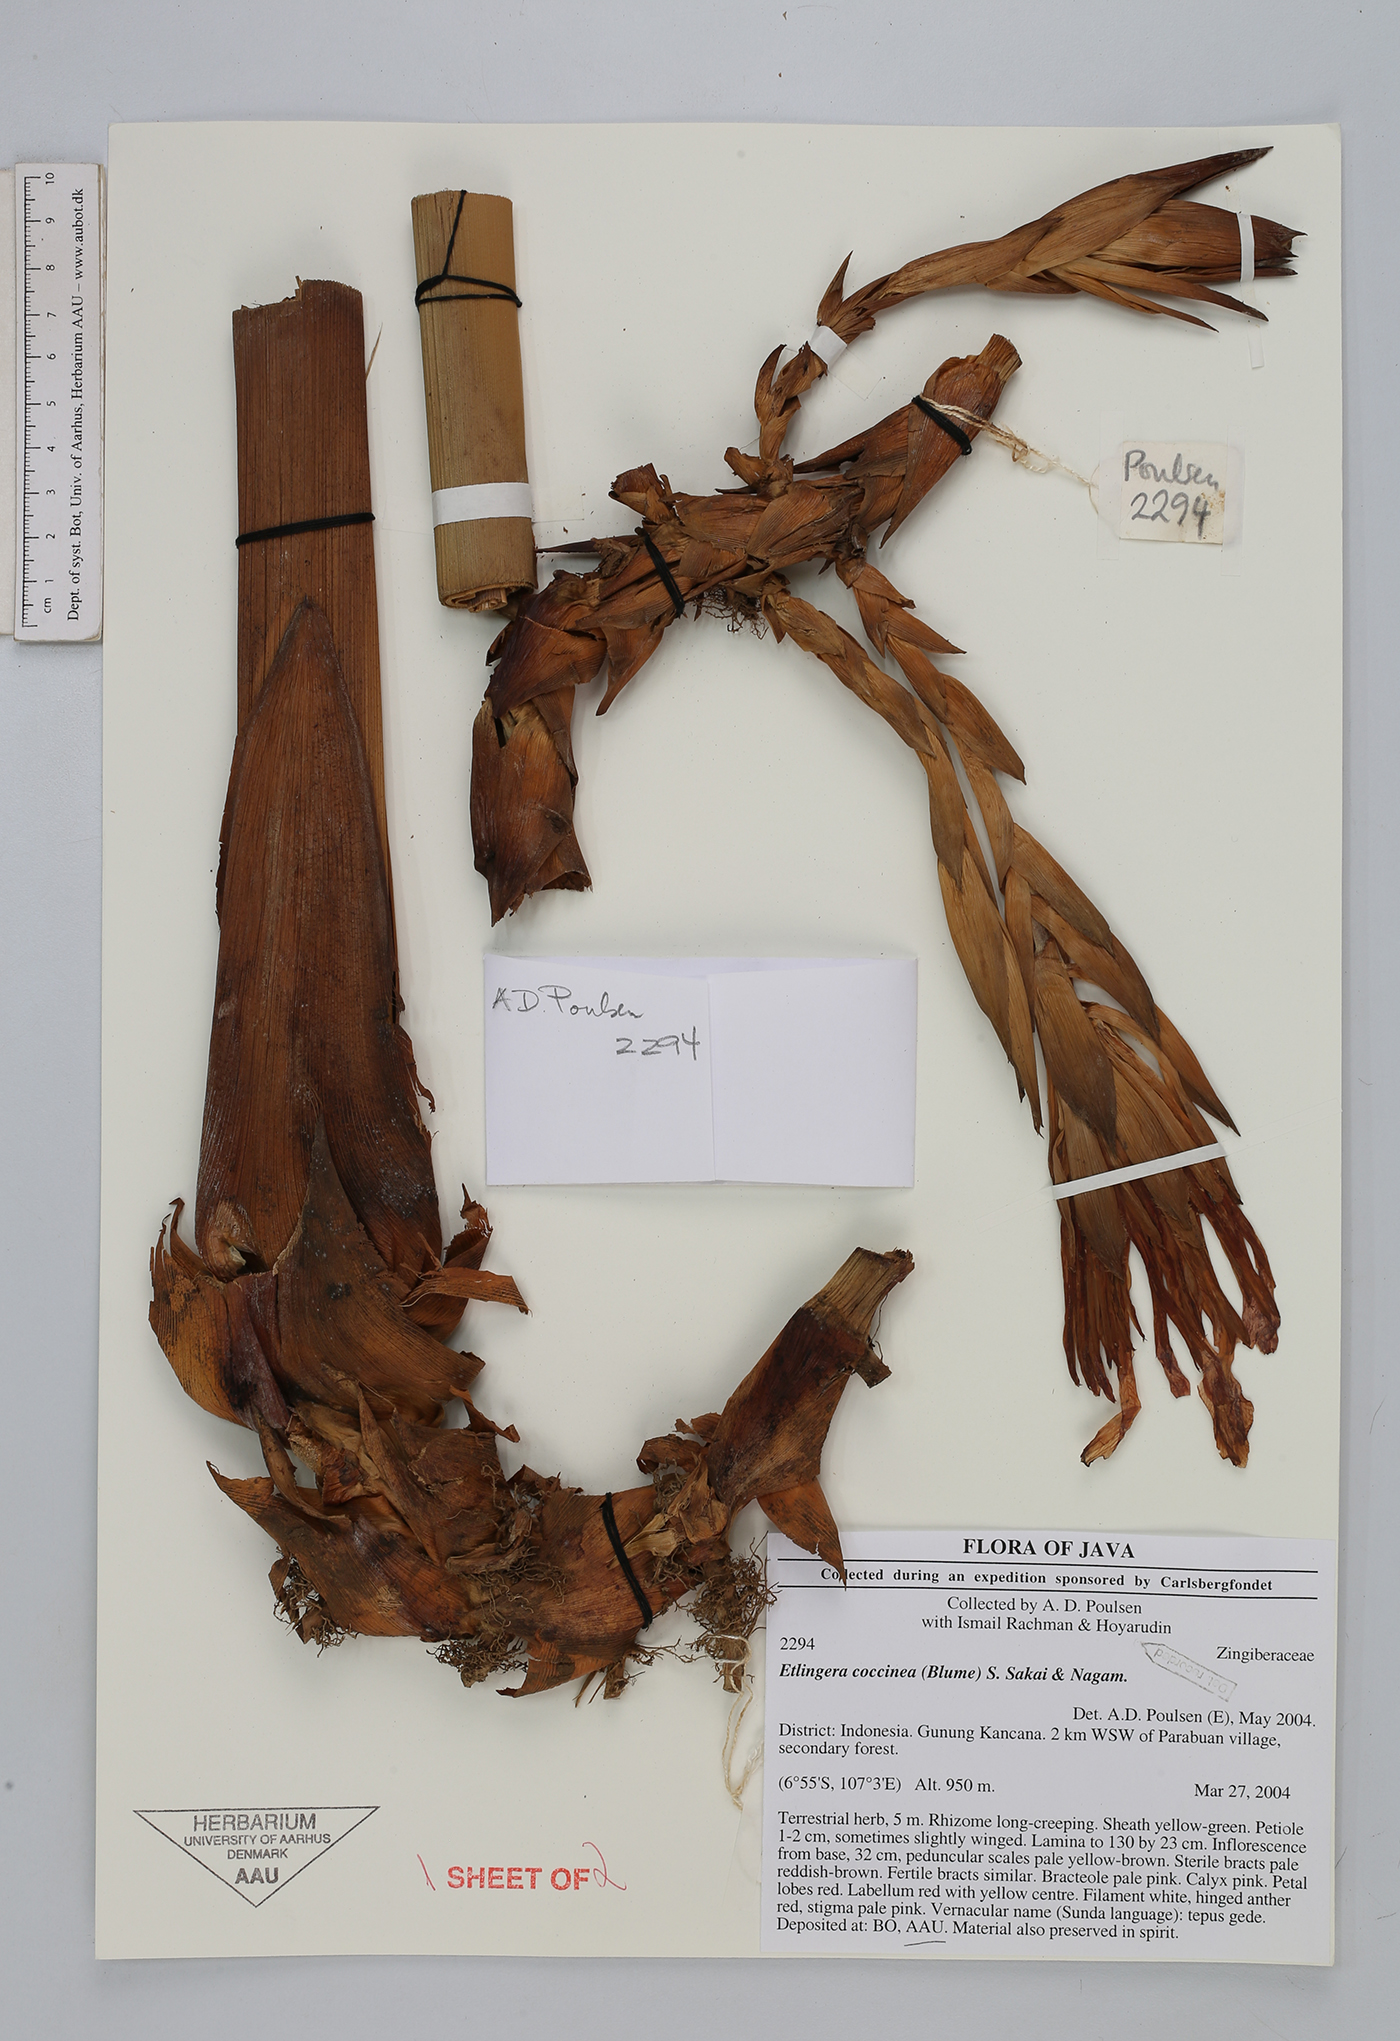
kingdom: Plantae
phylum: Tracheophyta
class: Liliopsida
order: Zingiberales
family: Zingiberaceae
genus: Etlingera
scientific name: Etlingera coccinea
